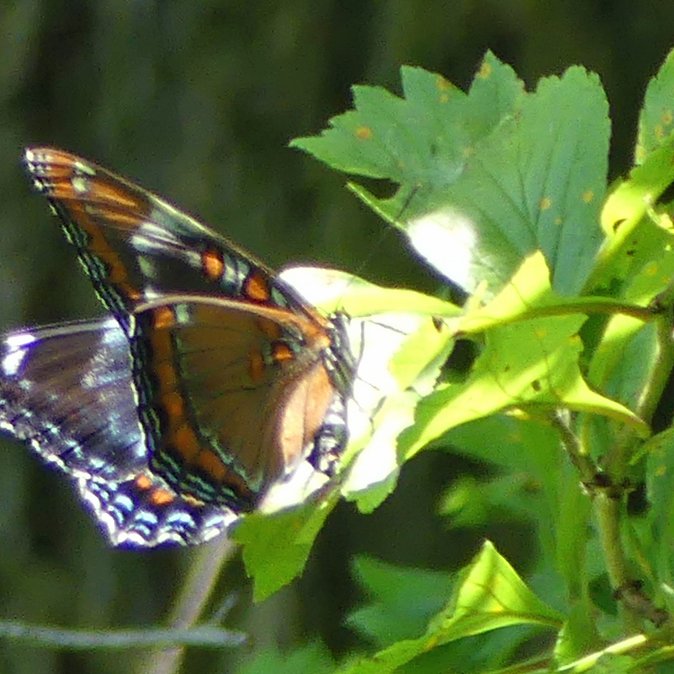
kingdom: Animalia
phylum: Arthropoda
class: Insecta
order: Lepidoptera
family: Nymphalidae
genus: Limenitis
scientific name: Limenitis
